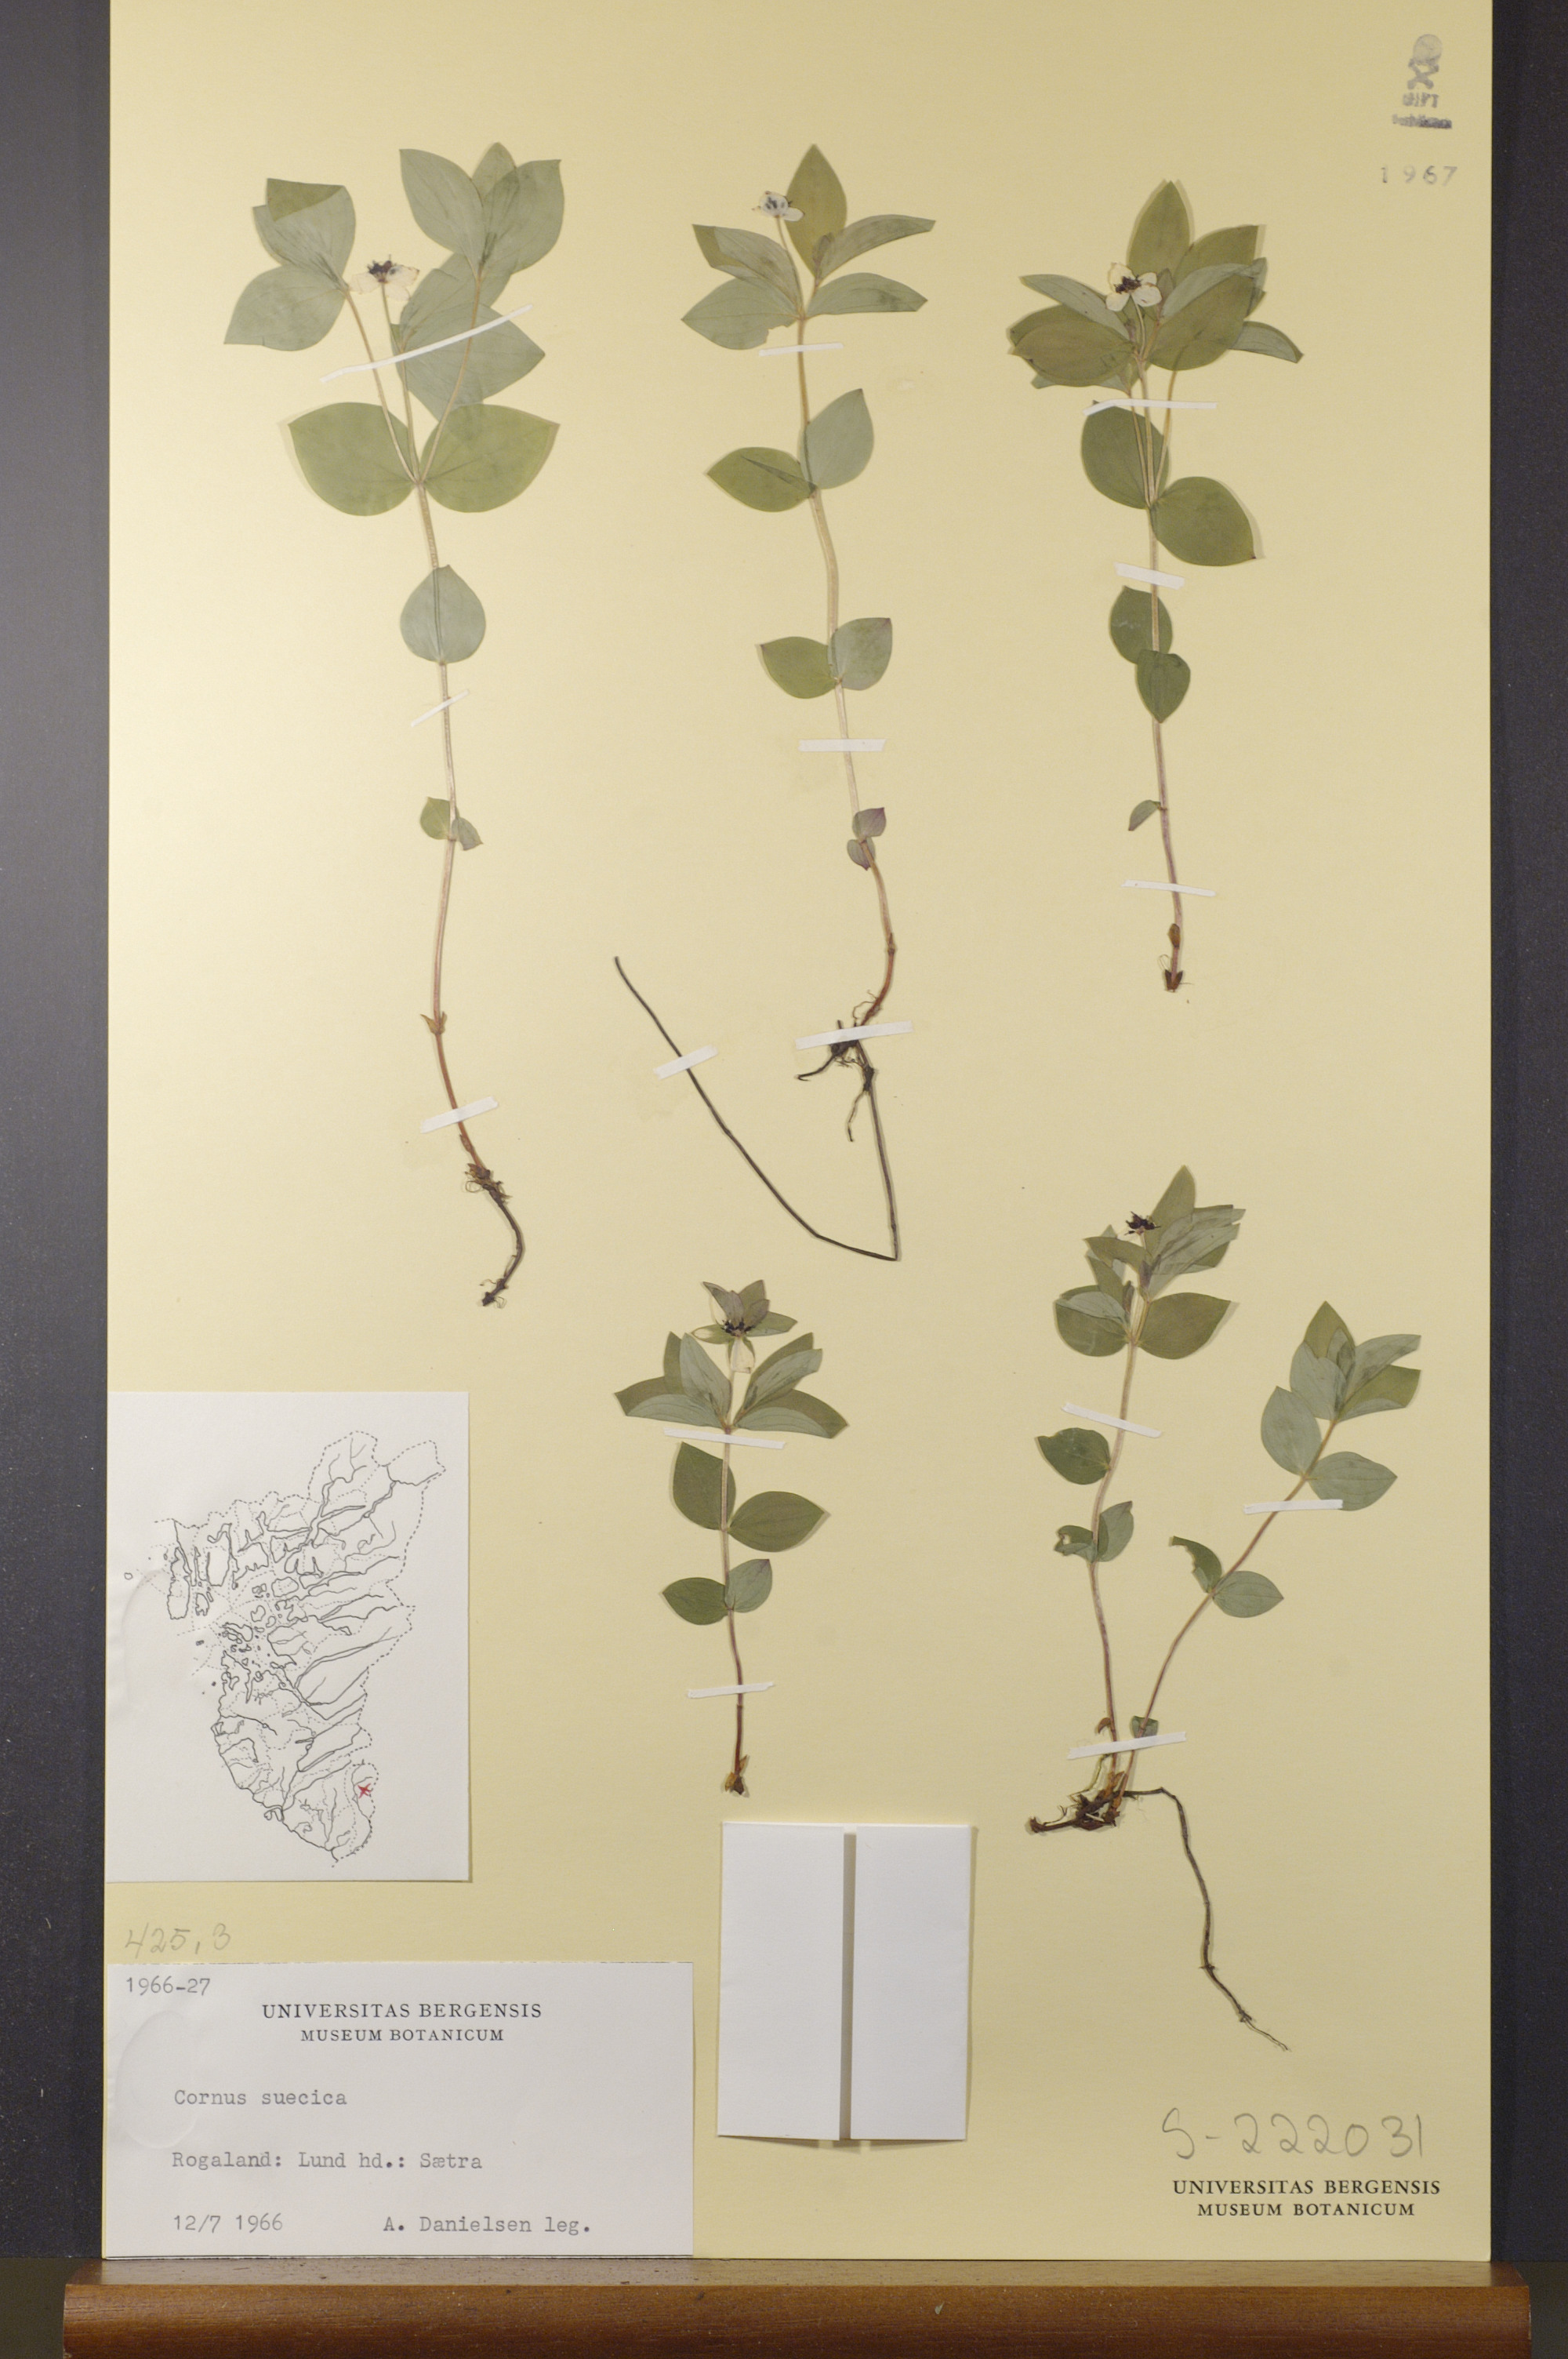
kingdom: Plantae
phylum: Tracheophyta
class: Magnoliopsida
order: Cornales
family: Cornaceae
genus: Cornus
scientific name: Cornus suecica
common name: Dwarf cornel
